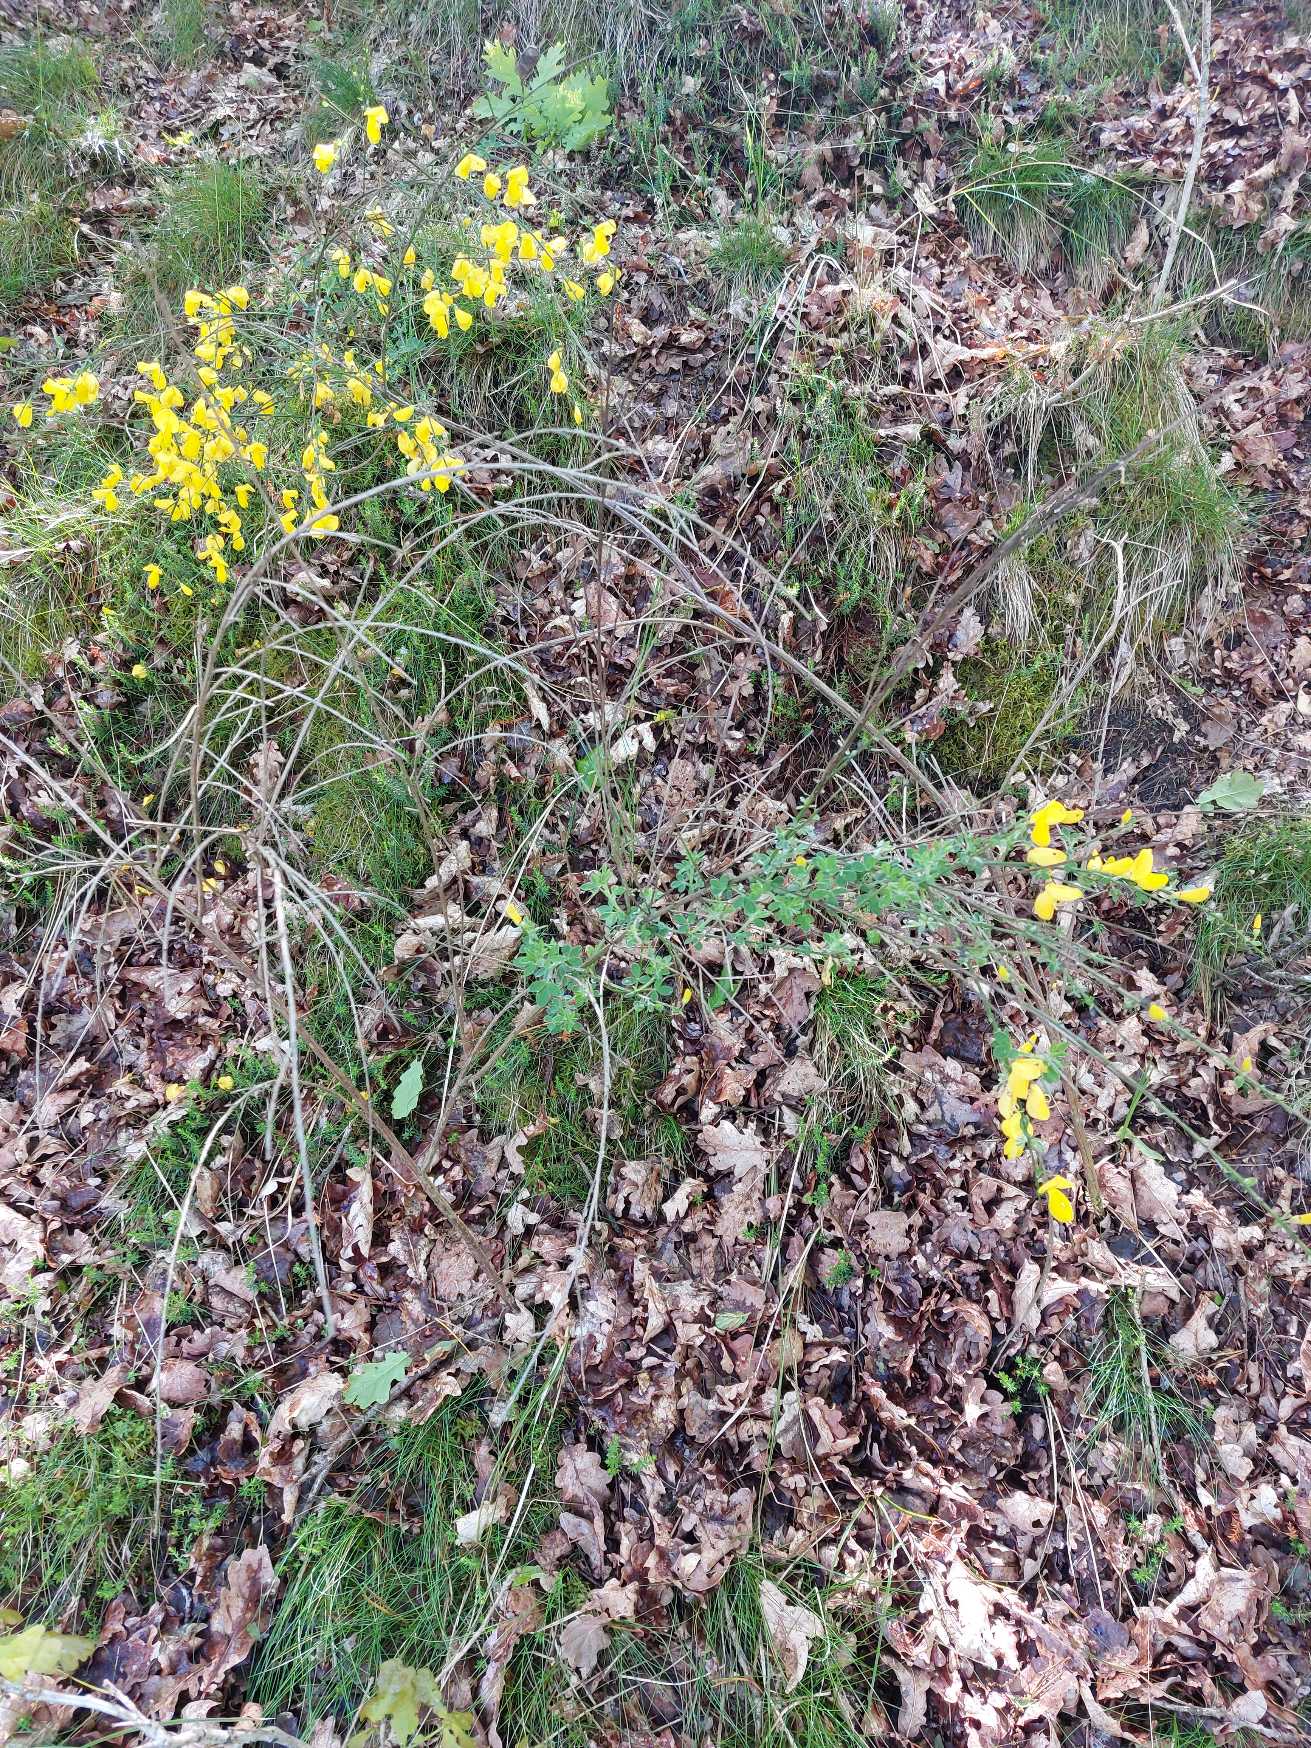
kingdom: Plantae
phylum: Tracheophyta
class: Magnoliopsida
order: Fabales
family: Fabaceae
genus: Cytisus
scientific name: Cytisus scoparius
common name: Almindelig gyvel
